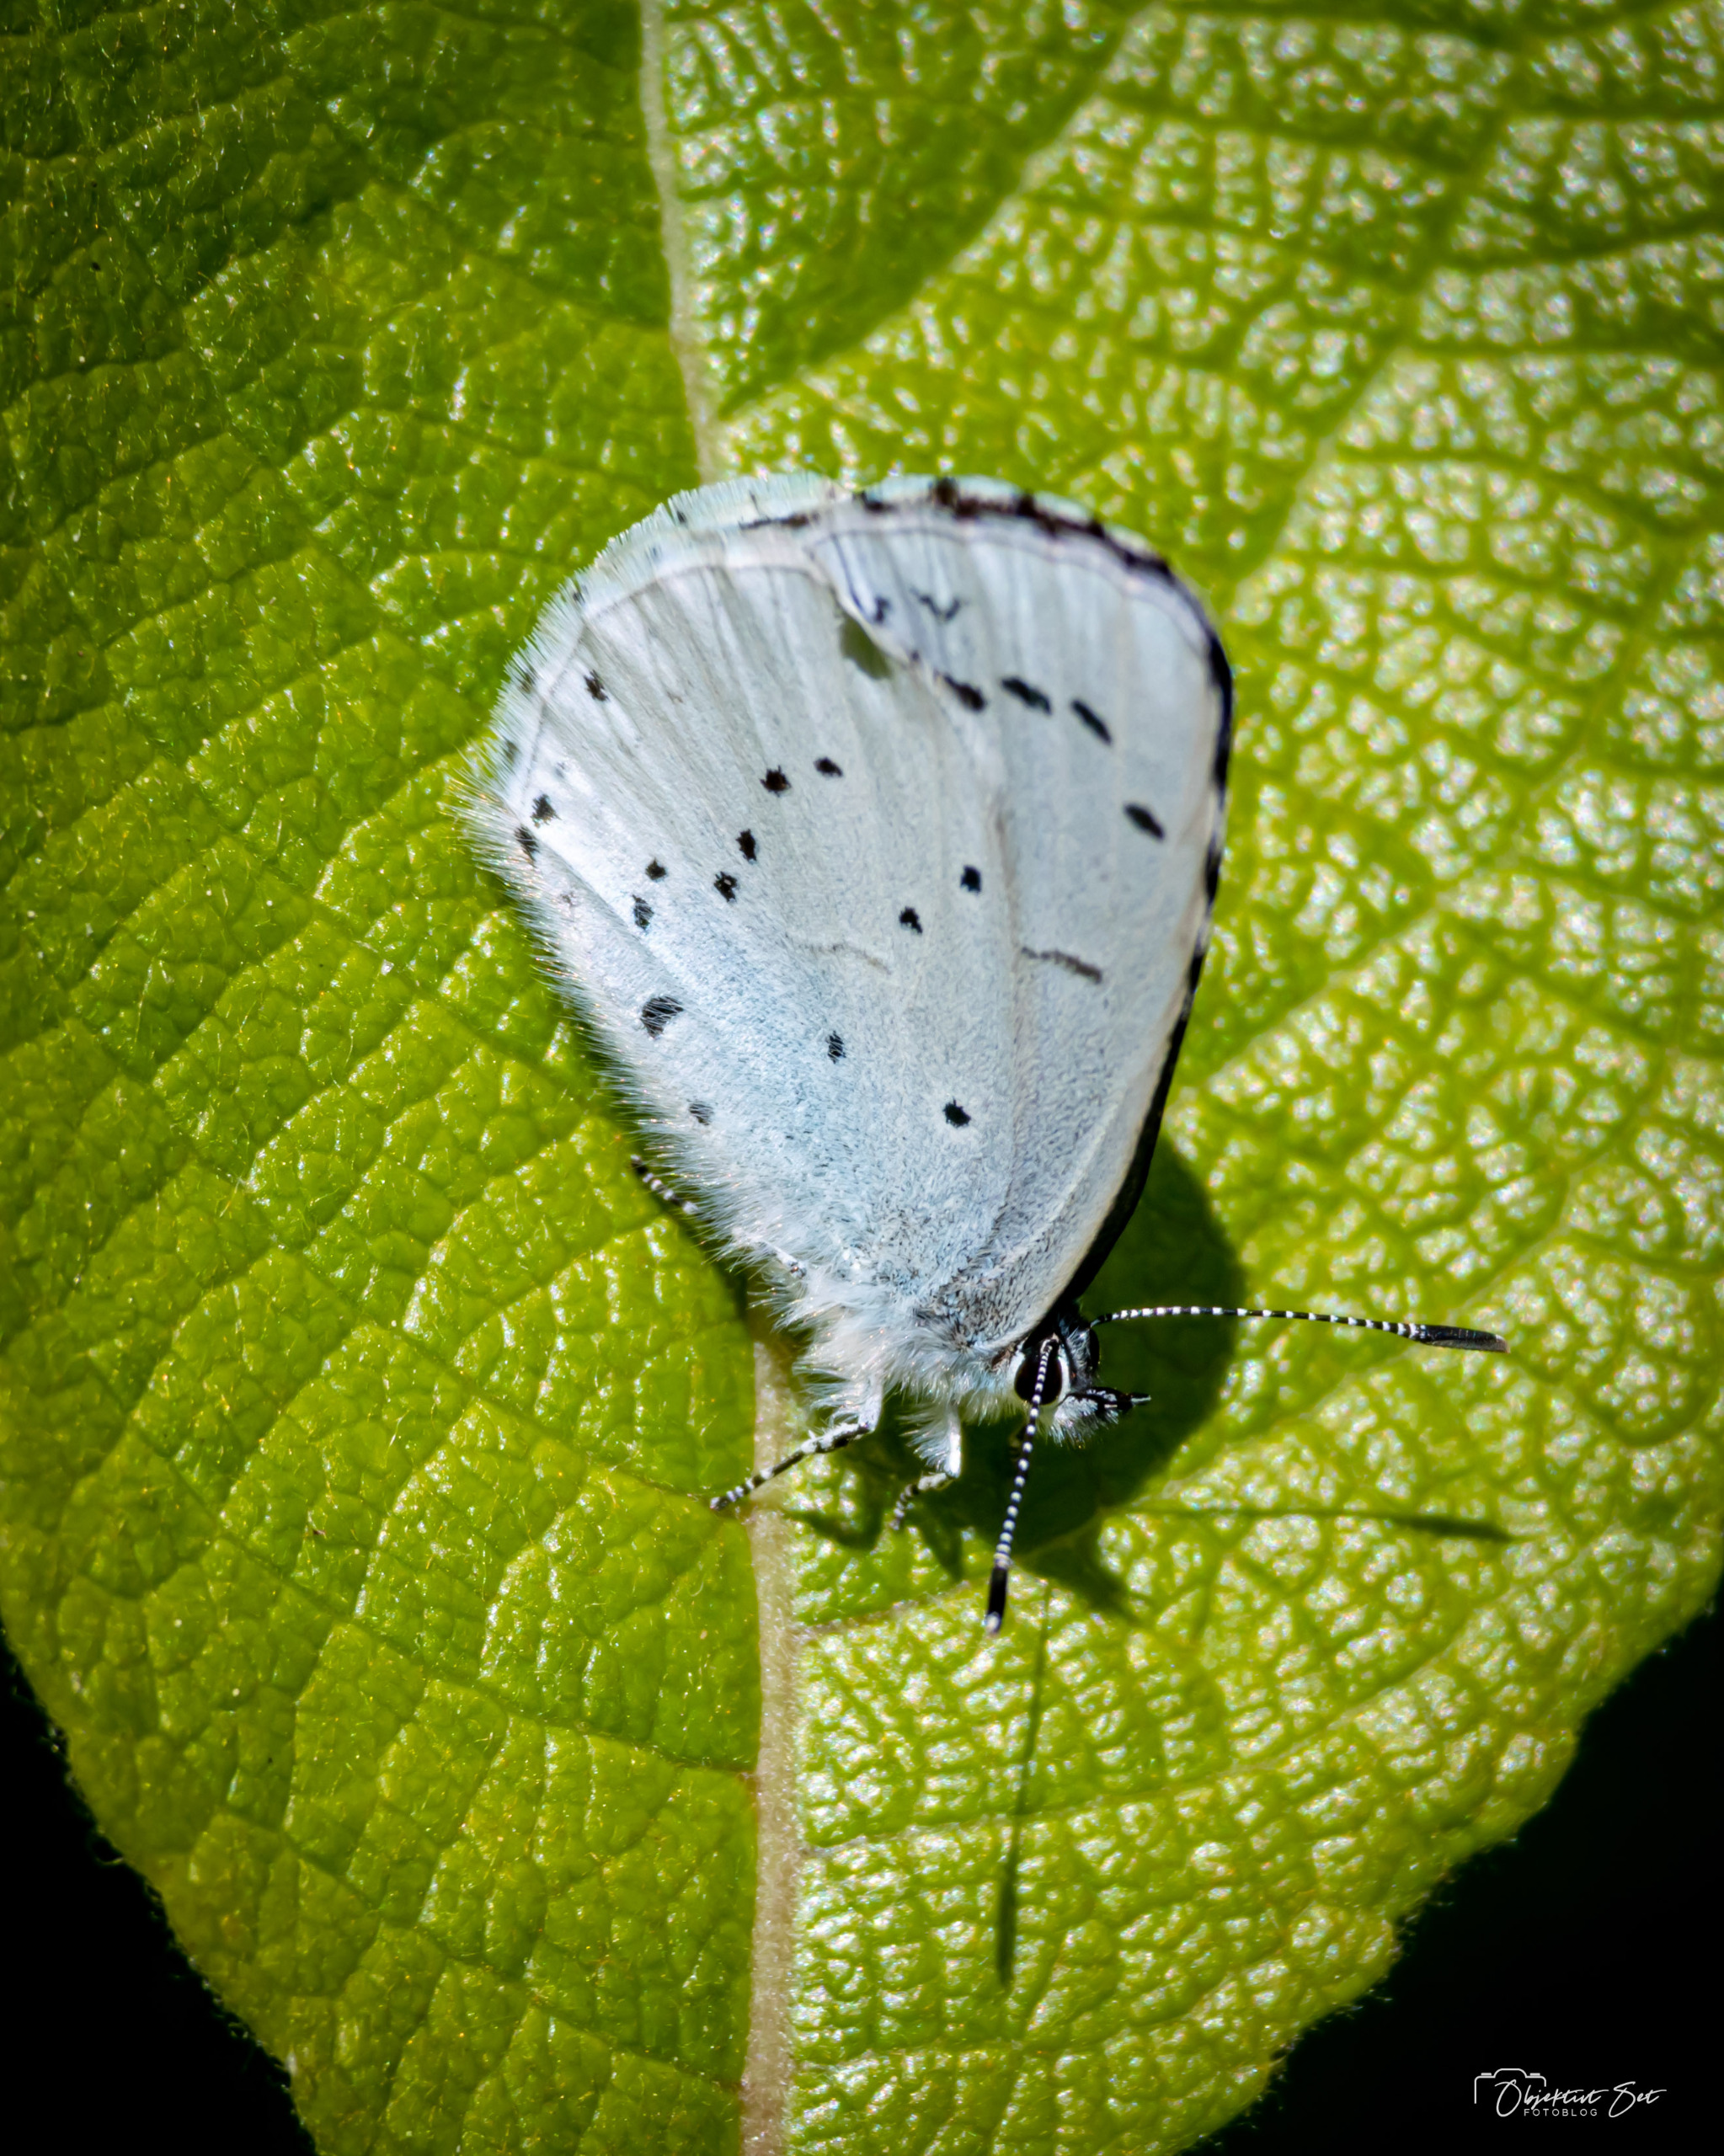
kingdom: Animalia
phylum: Arthropoda
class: Insecta
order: Lepidoptera
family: Lycaenidae
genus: Celastrina
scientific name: Celastrina argiolus
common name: Skovblåfugl
